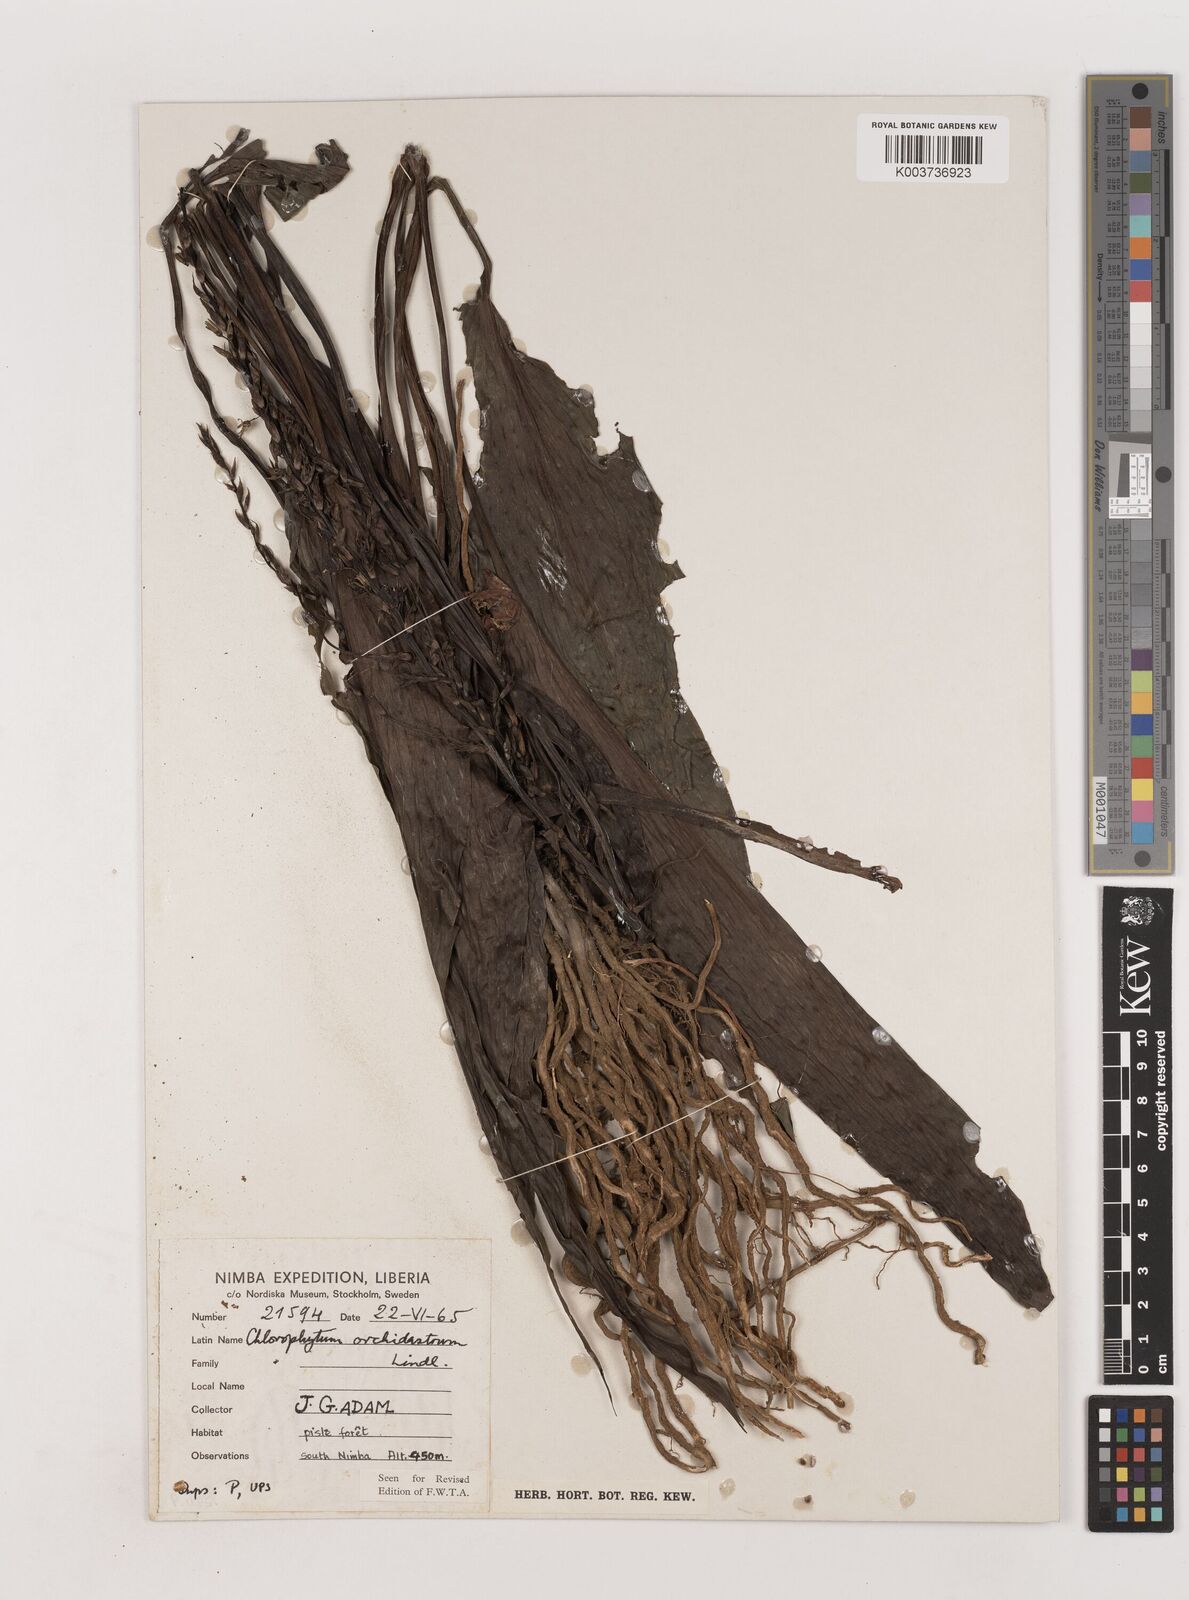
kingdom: Plantae
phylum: Tracheophyta
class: Liliopsida
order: Asparagales
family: Asparagaceae
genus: Chlorophytum
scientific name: Chlorophytum orchidastrum
